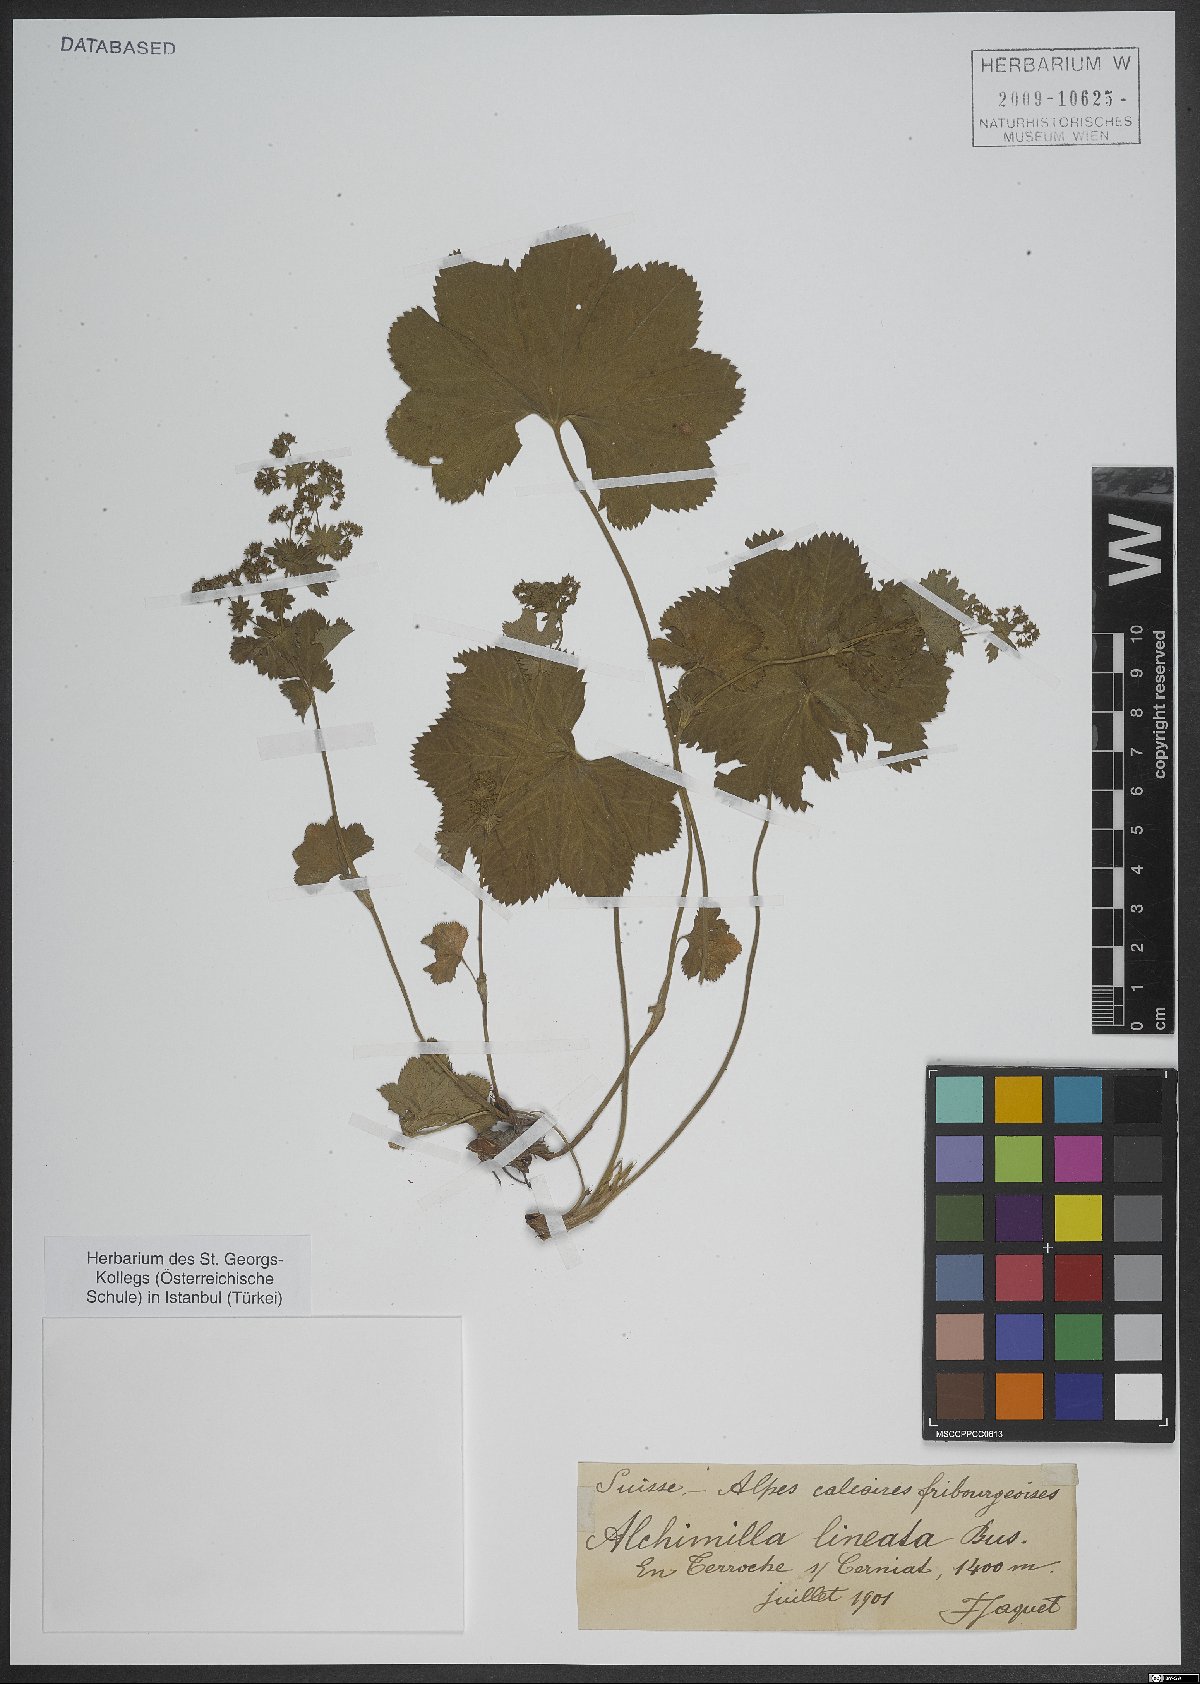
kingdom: Plantae
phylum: Tracheophyta
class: Magnoliopsida
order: Rosales
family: Rosaceae
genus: Alchemilla
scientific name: Alchemilla lineata
